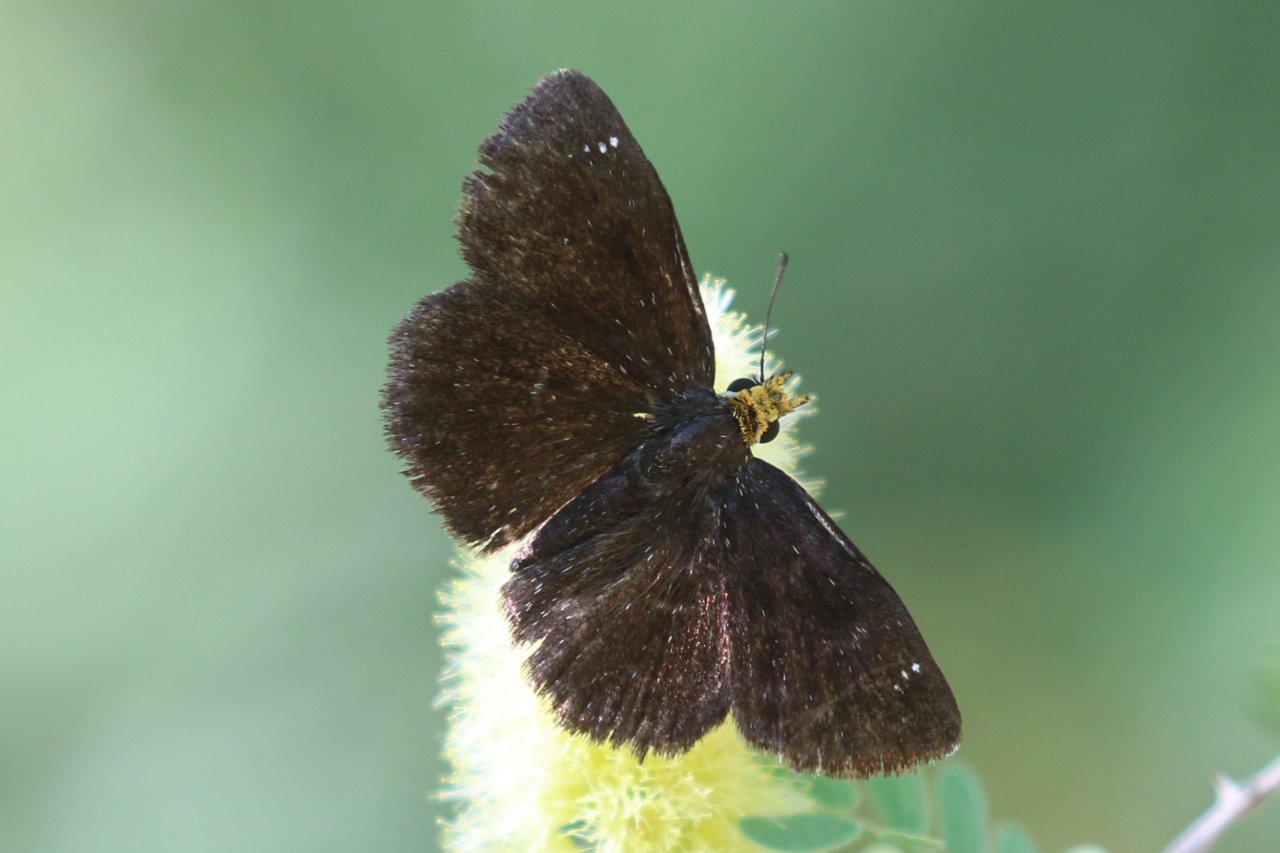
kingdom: Animalia
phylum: Arthropoda
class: Insecta
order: Lepidoptera
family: Hesperiidae
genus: Staphylus
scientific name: Staphylus ceos
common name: Golden-headed Scallopwing
